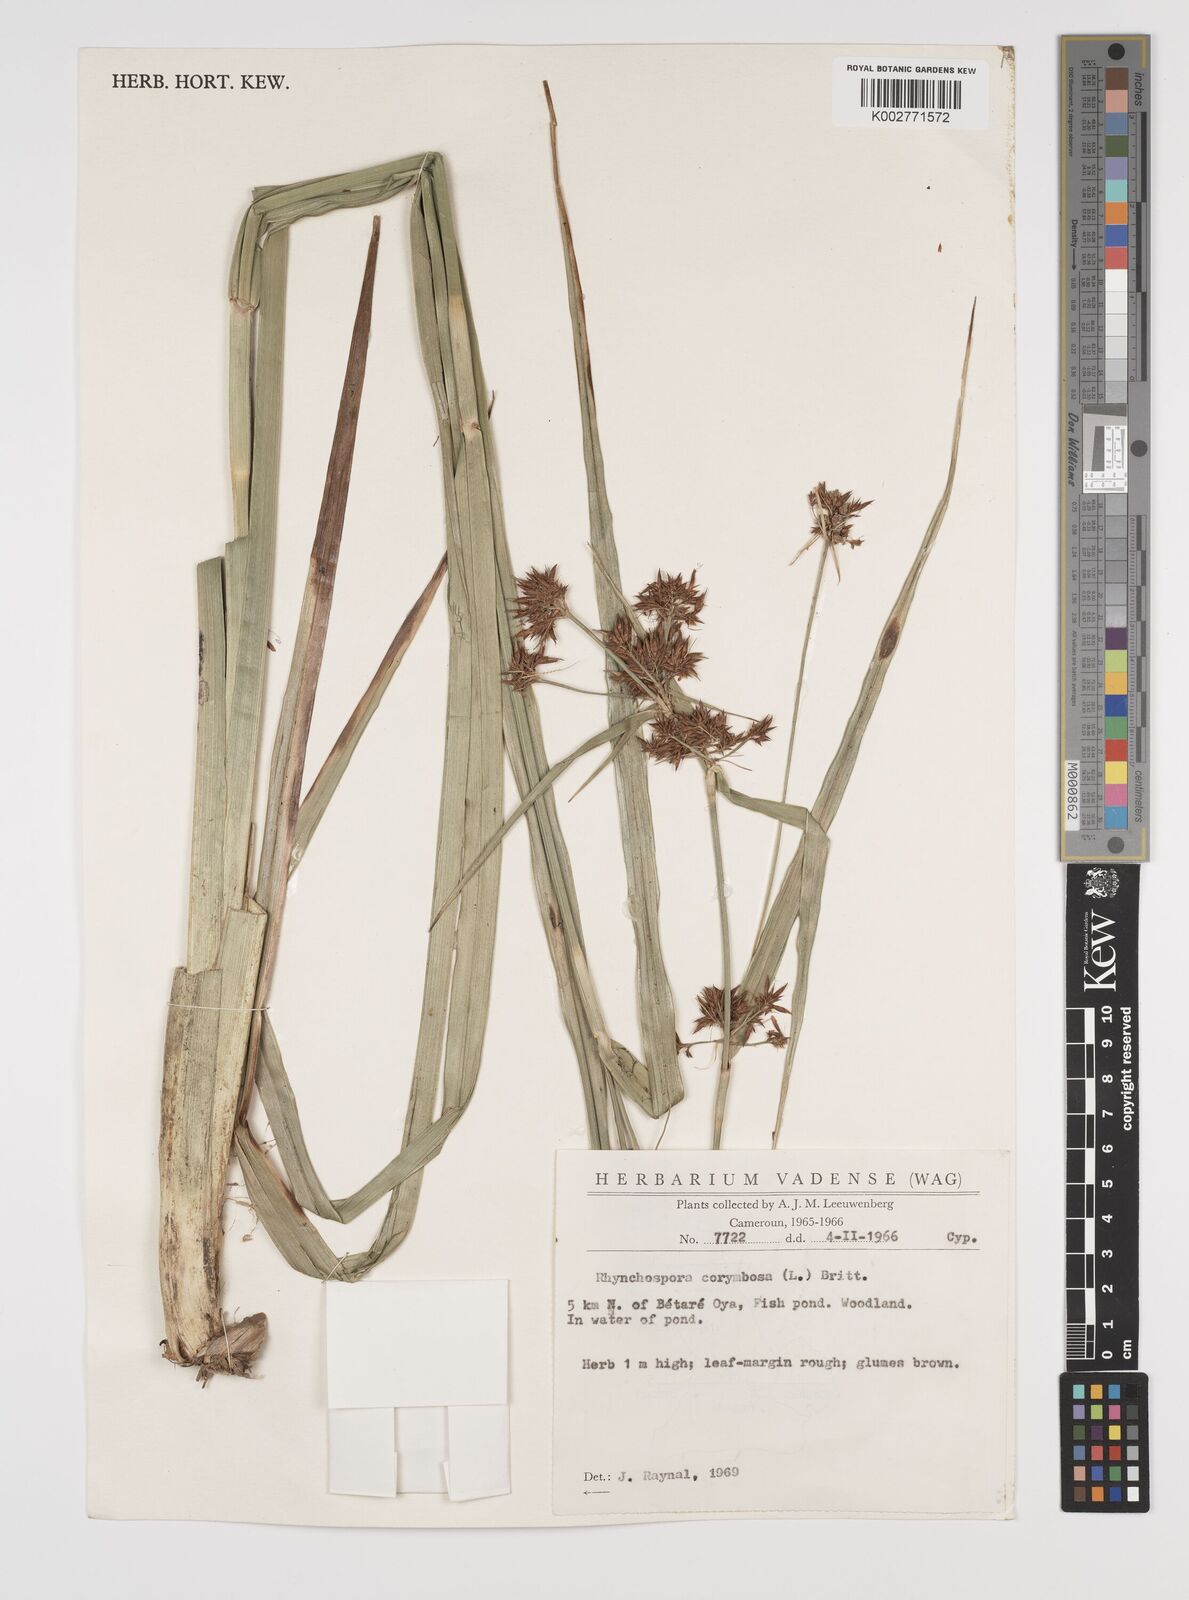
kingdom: Plantae
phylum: Tracheophyta
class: Liliopsida
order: Poales
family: Cyperaceae
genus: Rhynchospora
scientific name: Rhynchospora corymbosa
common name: Golden beak sedge
